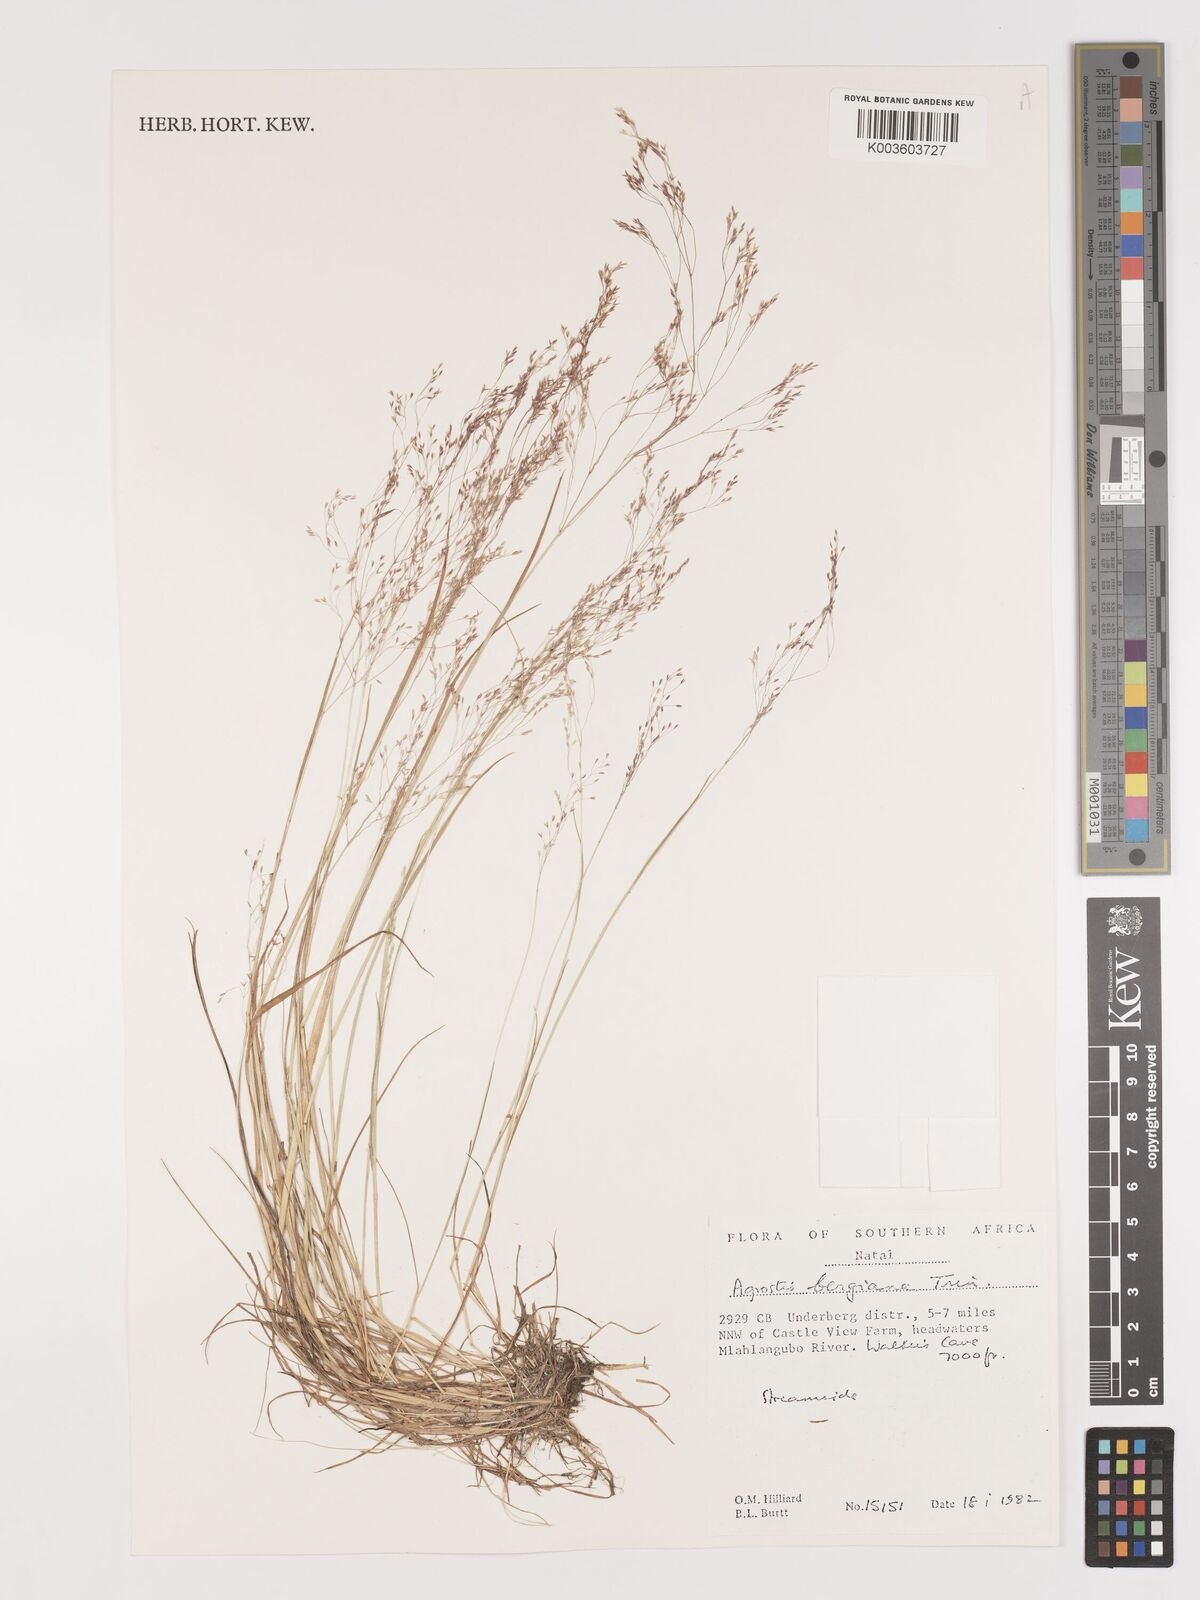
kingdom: Plantae
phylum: Tracheophyta
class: Liliopsida
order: Poales
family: Poaceae
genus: Agrostis
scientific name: Agrostis bergiana
